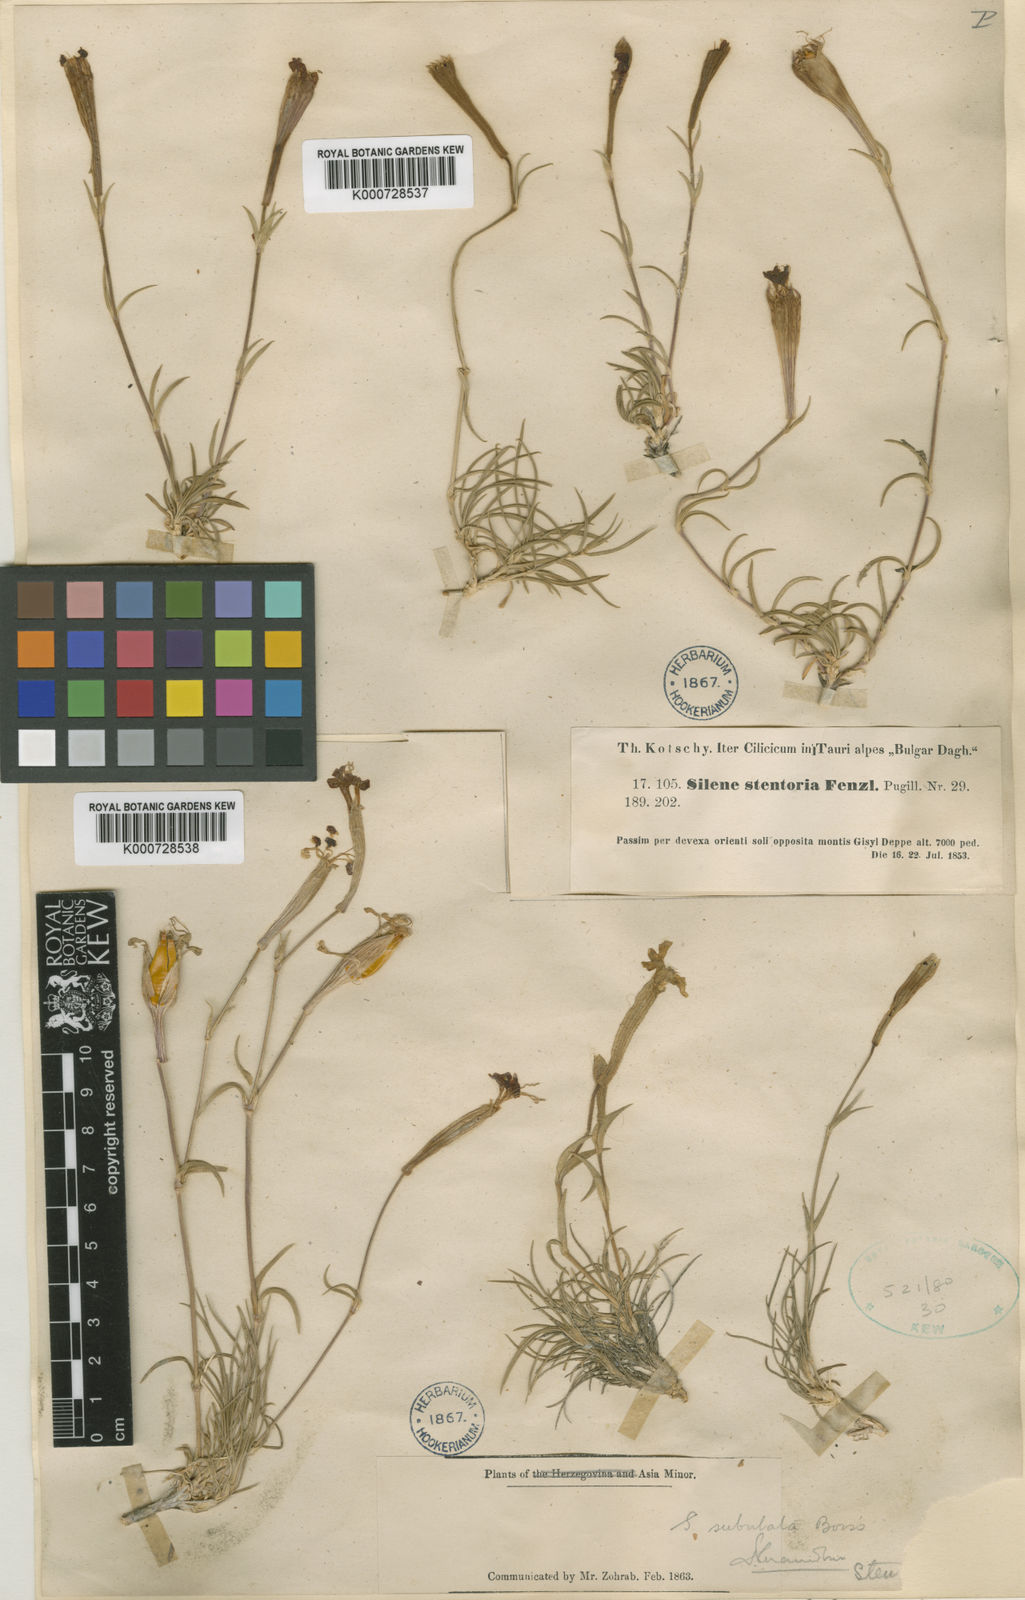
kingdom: Plantae
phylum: Tracheophyta
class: Magnoliopsida
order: Caryophyllales
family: Caryophyllaceae
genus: Silene
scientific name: Silene caryophylloides
